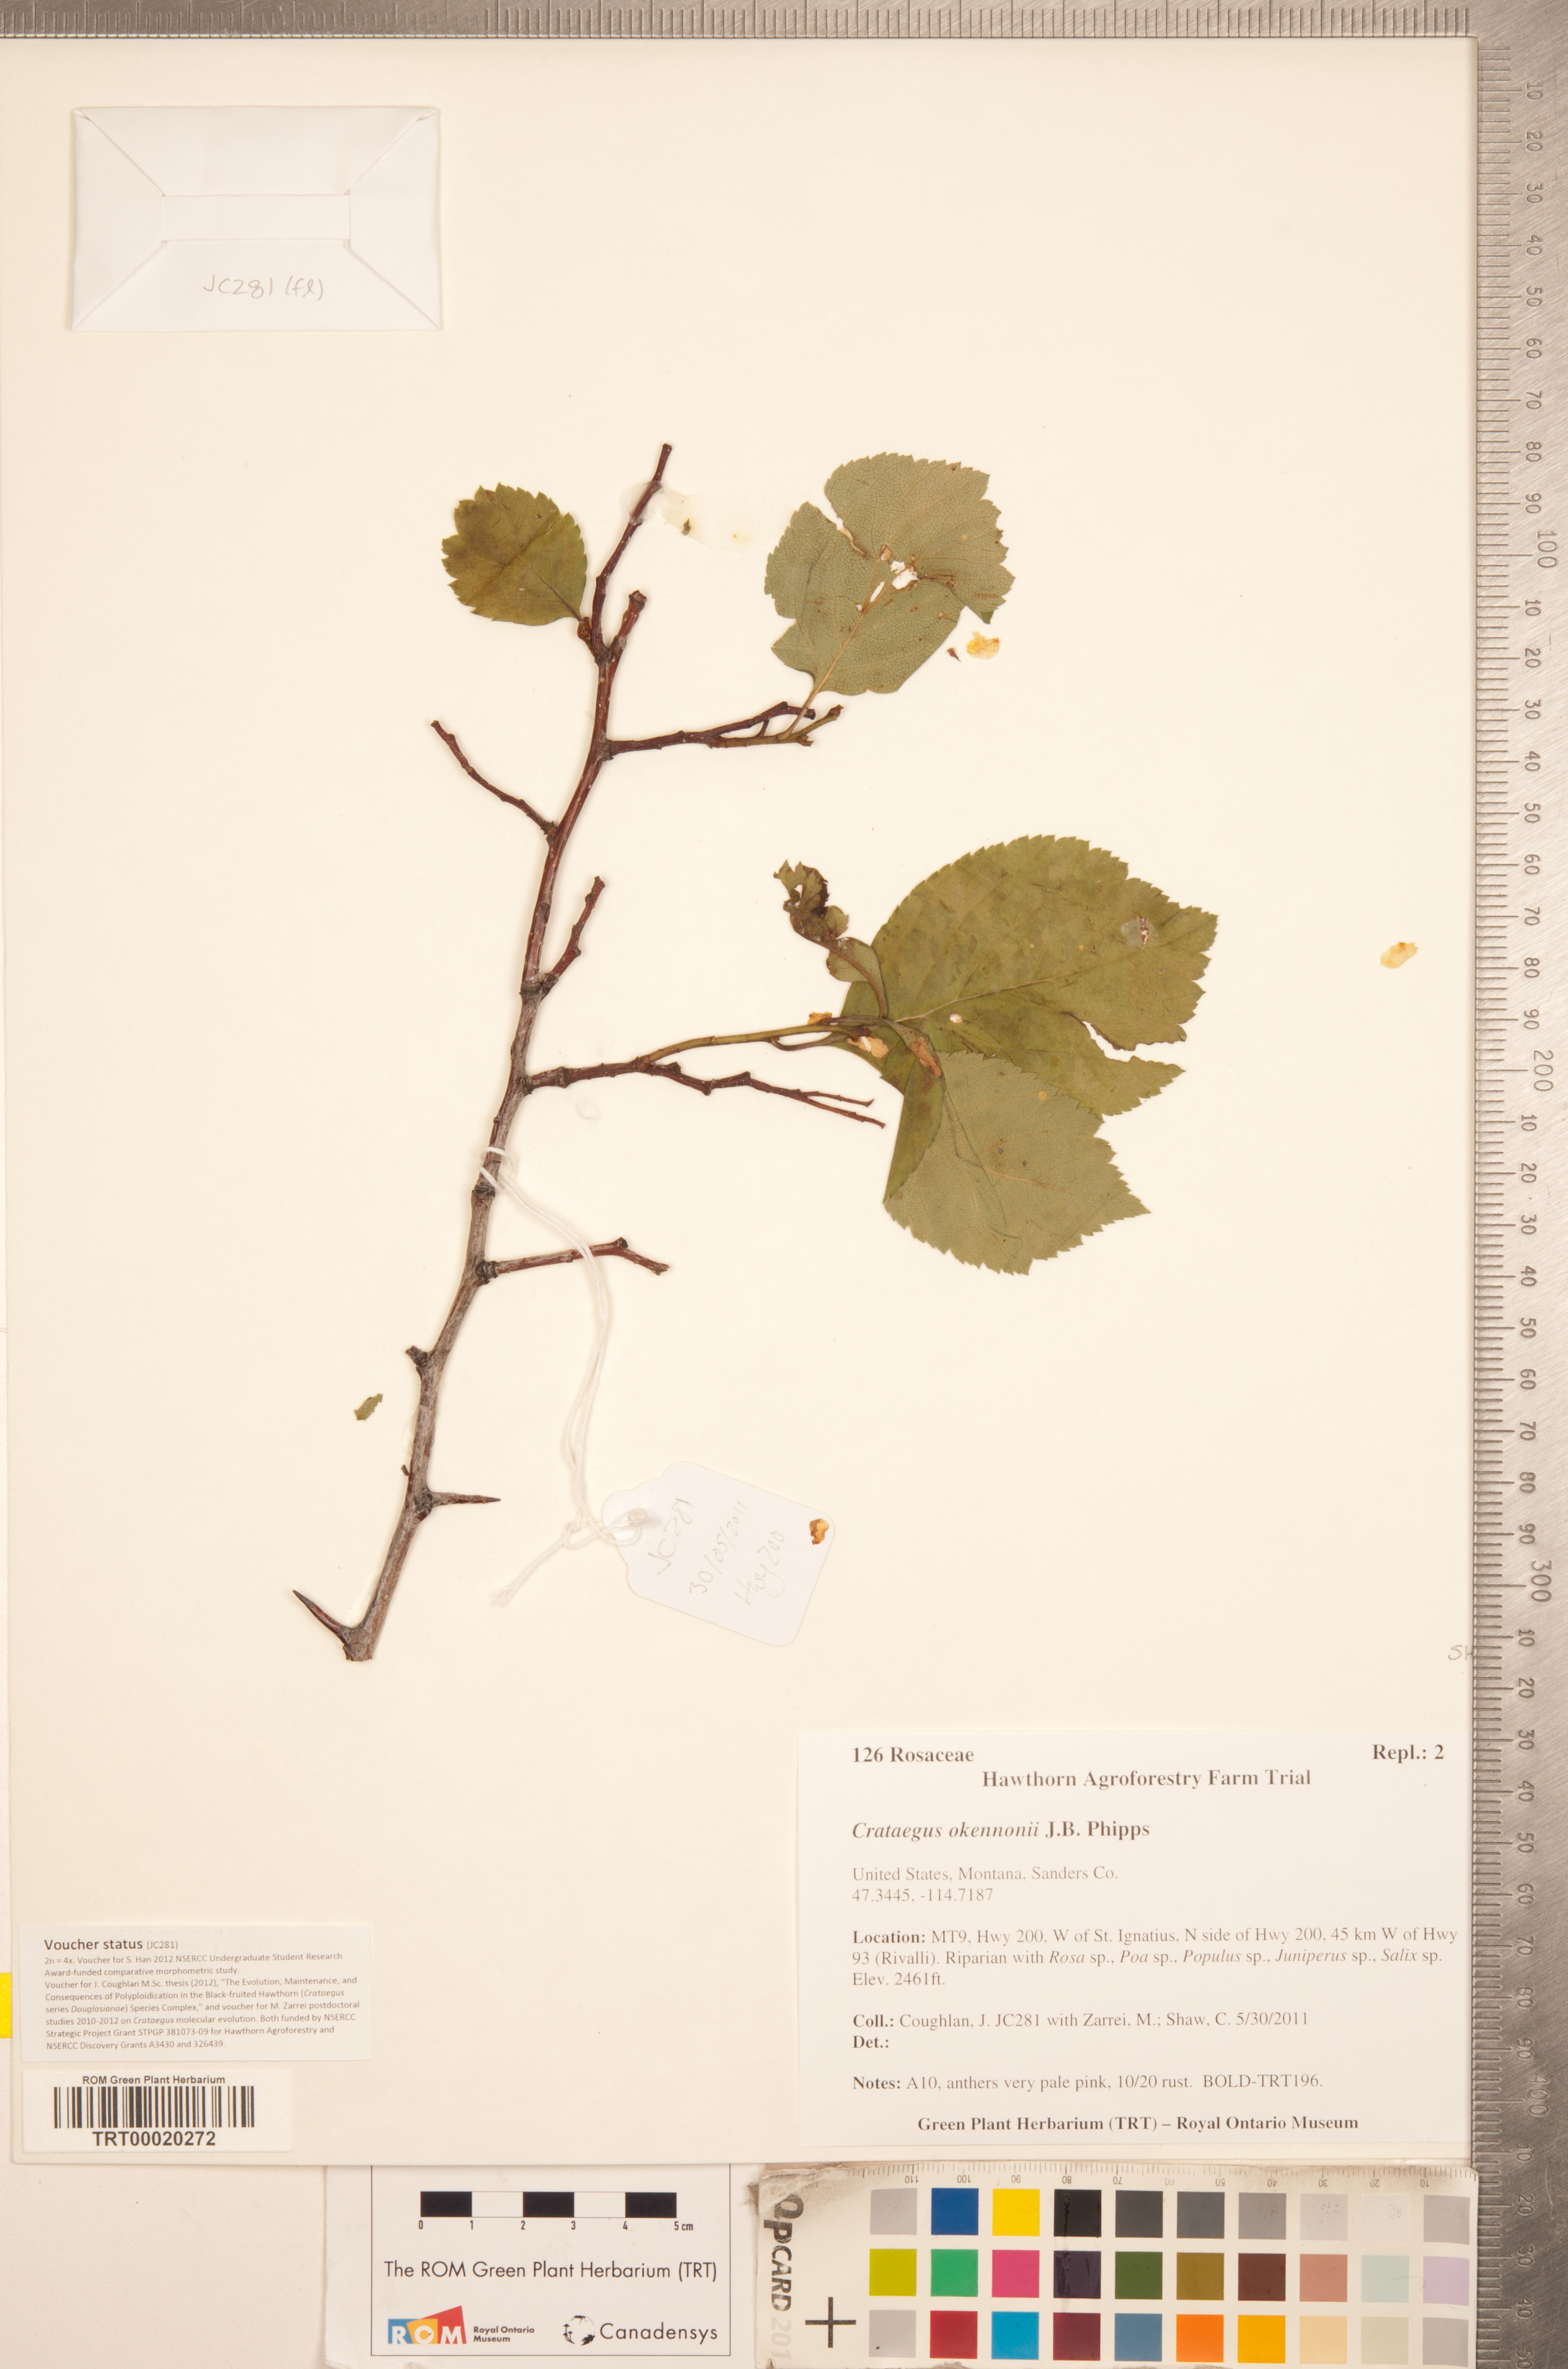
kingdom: Plantae
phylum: Tracheophyta
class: Magnoliopsida
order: Rosales
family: Rosaceae
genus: Crataegus
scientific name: Crataegus okennonii
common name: O'kennon's hawthorn
